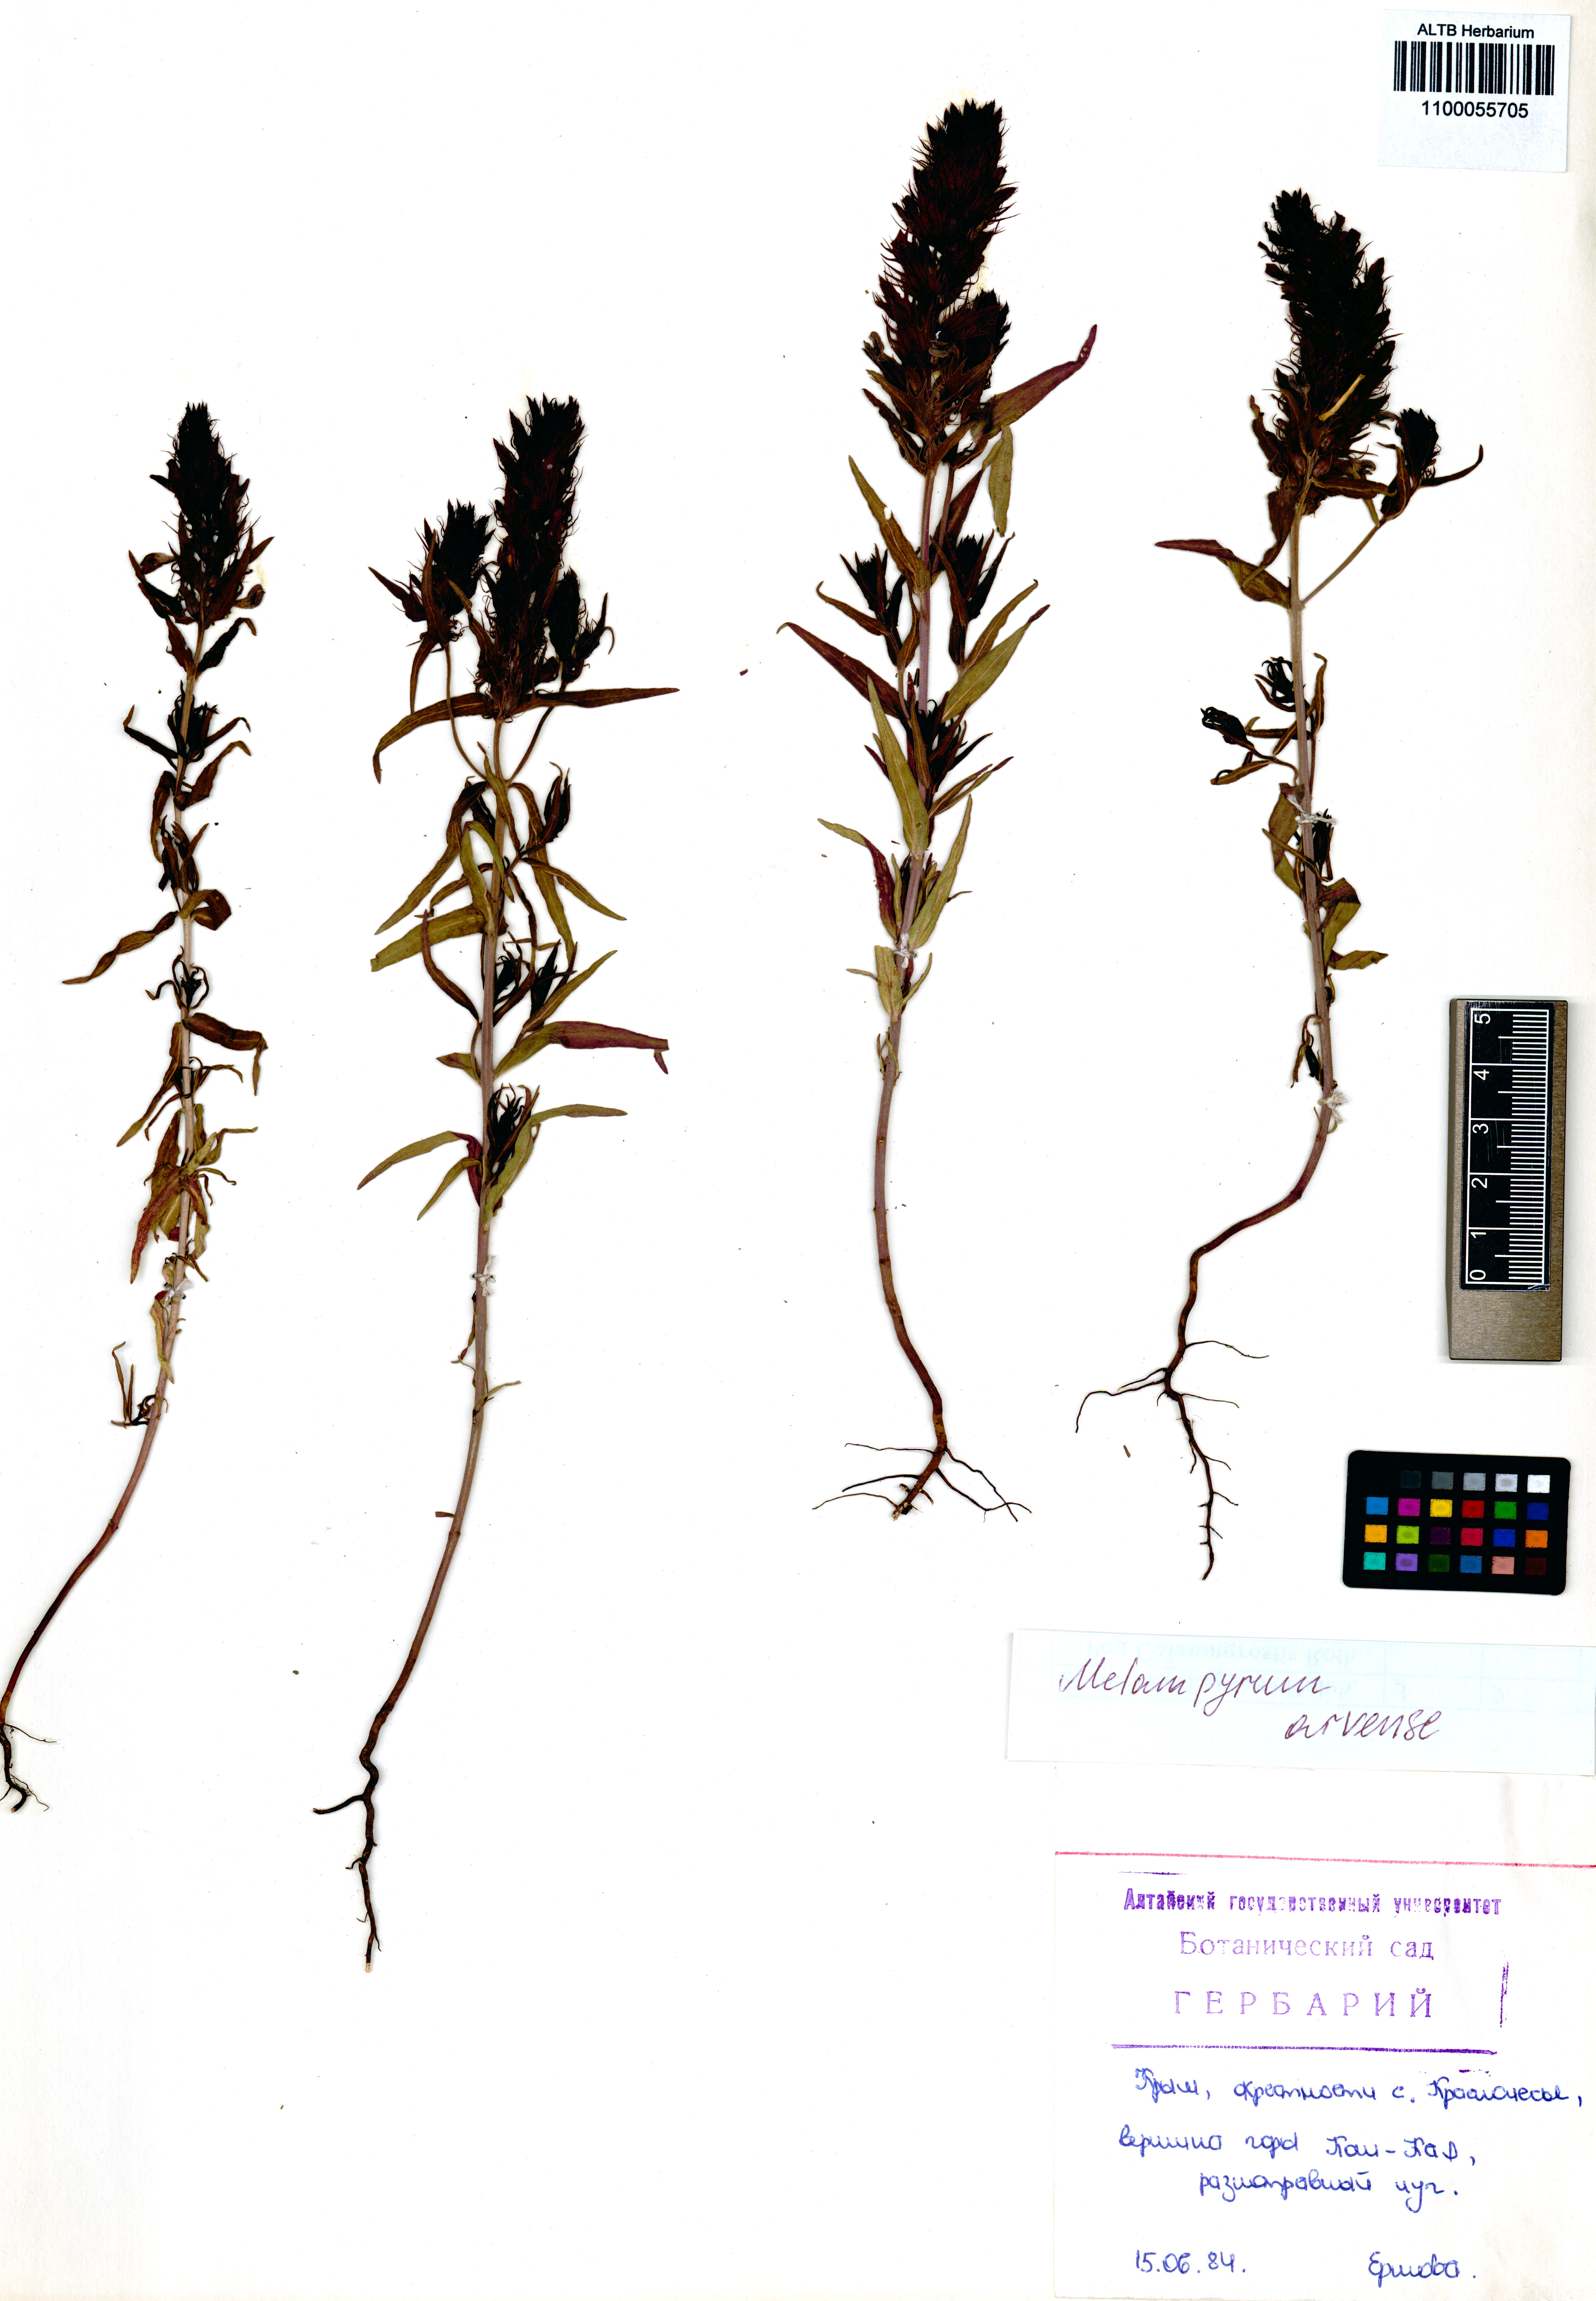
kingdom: Plantae
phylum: Tracheophyta
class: Magnoliopsida
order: Lamiales
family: Orobanchaceae
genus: Melampyrum
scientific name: Melampyrum arvense
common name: Field cow-wheat
